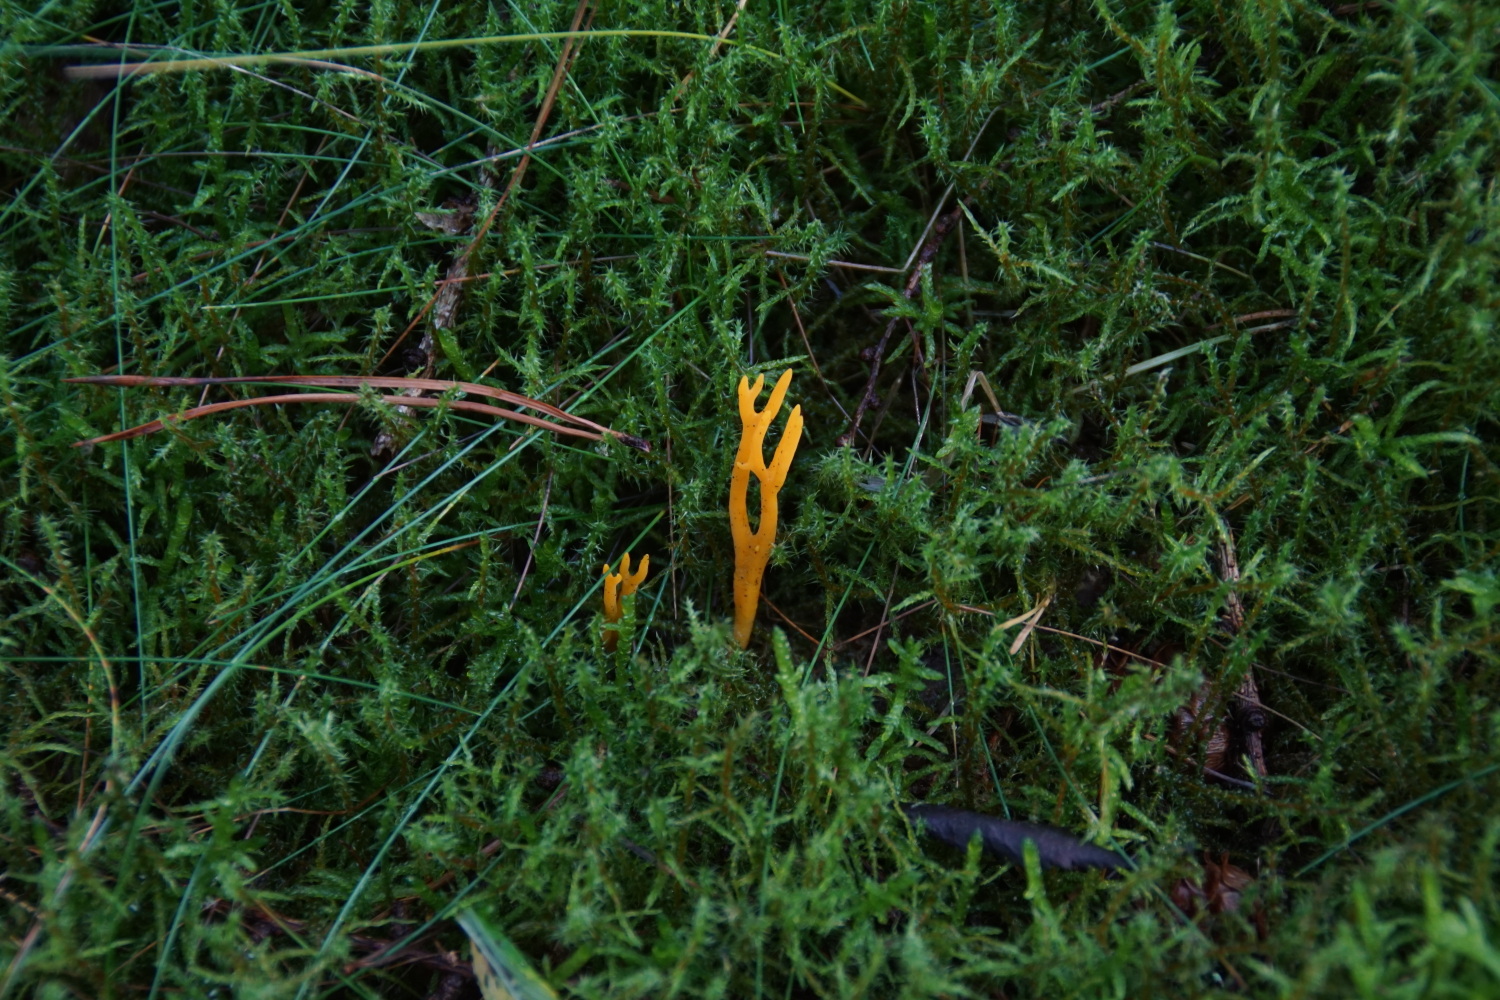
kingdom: Fungi
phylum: Basidiomycota
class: Dacrymycetes
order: Dacrymycetales
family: Dacrymycetaceae
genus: Calocera
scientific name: Calocera viscosa
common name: almindelig guldgaffel
